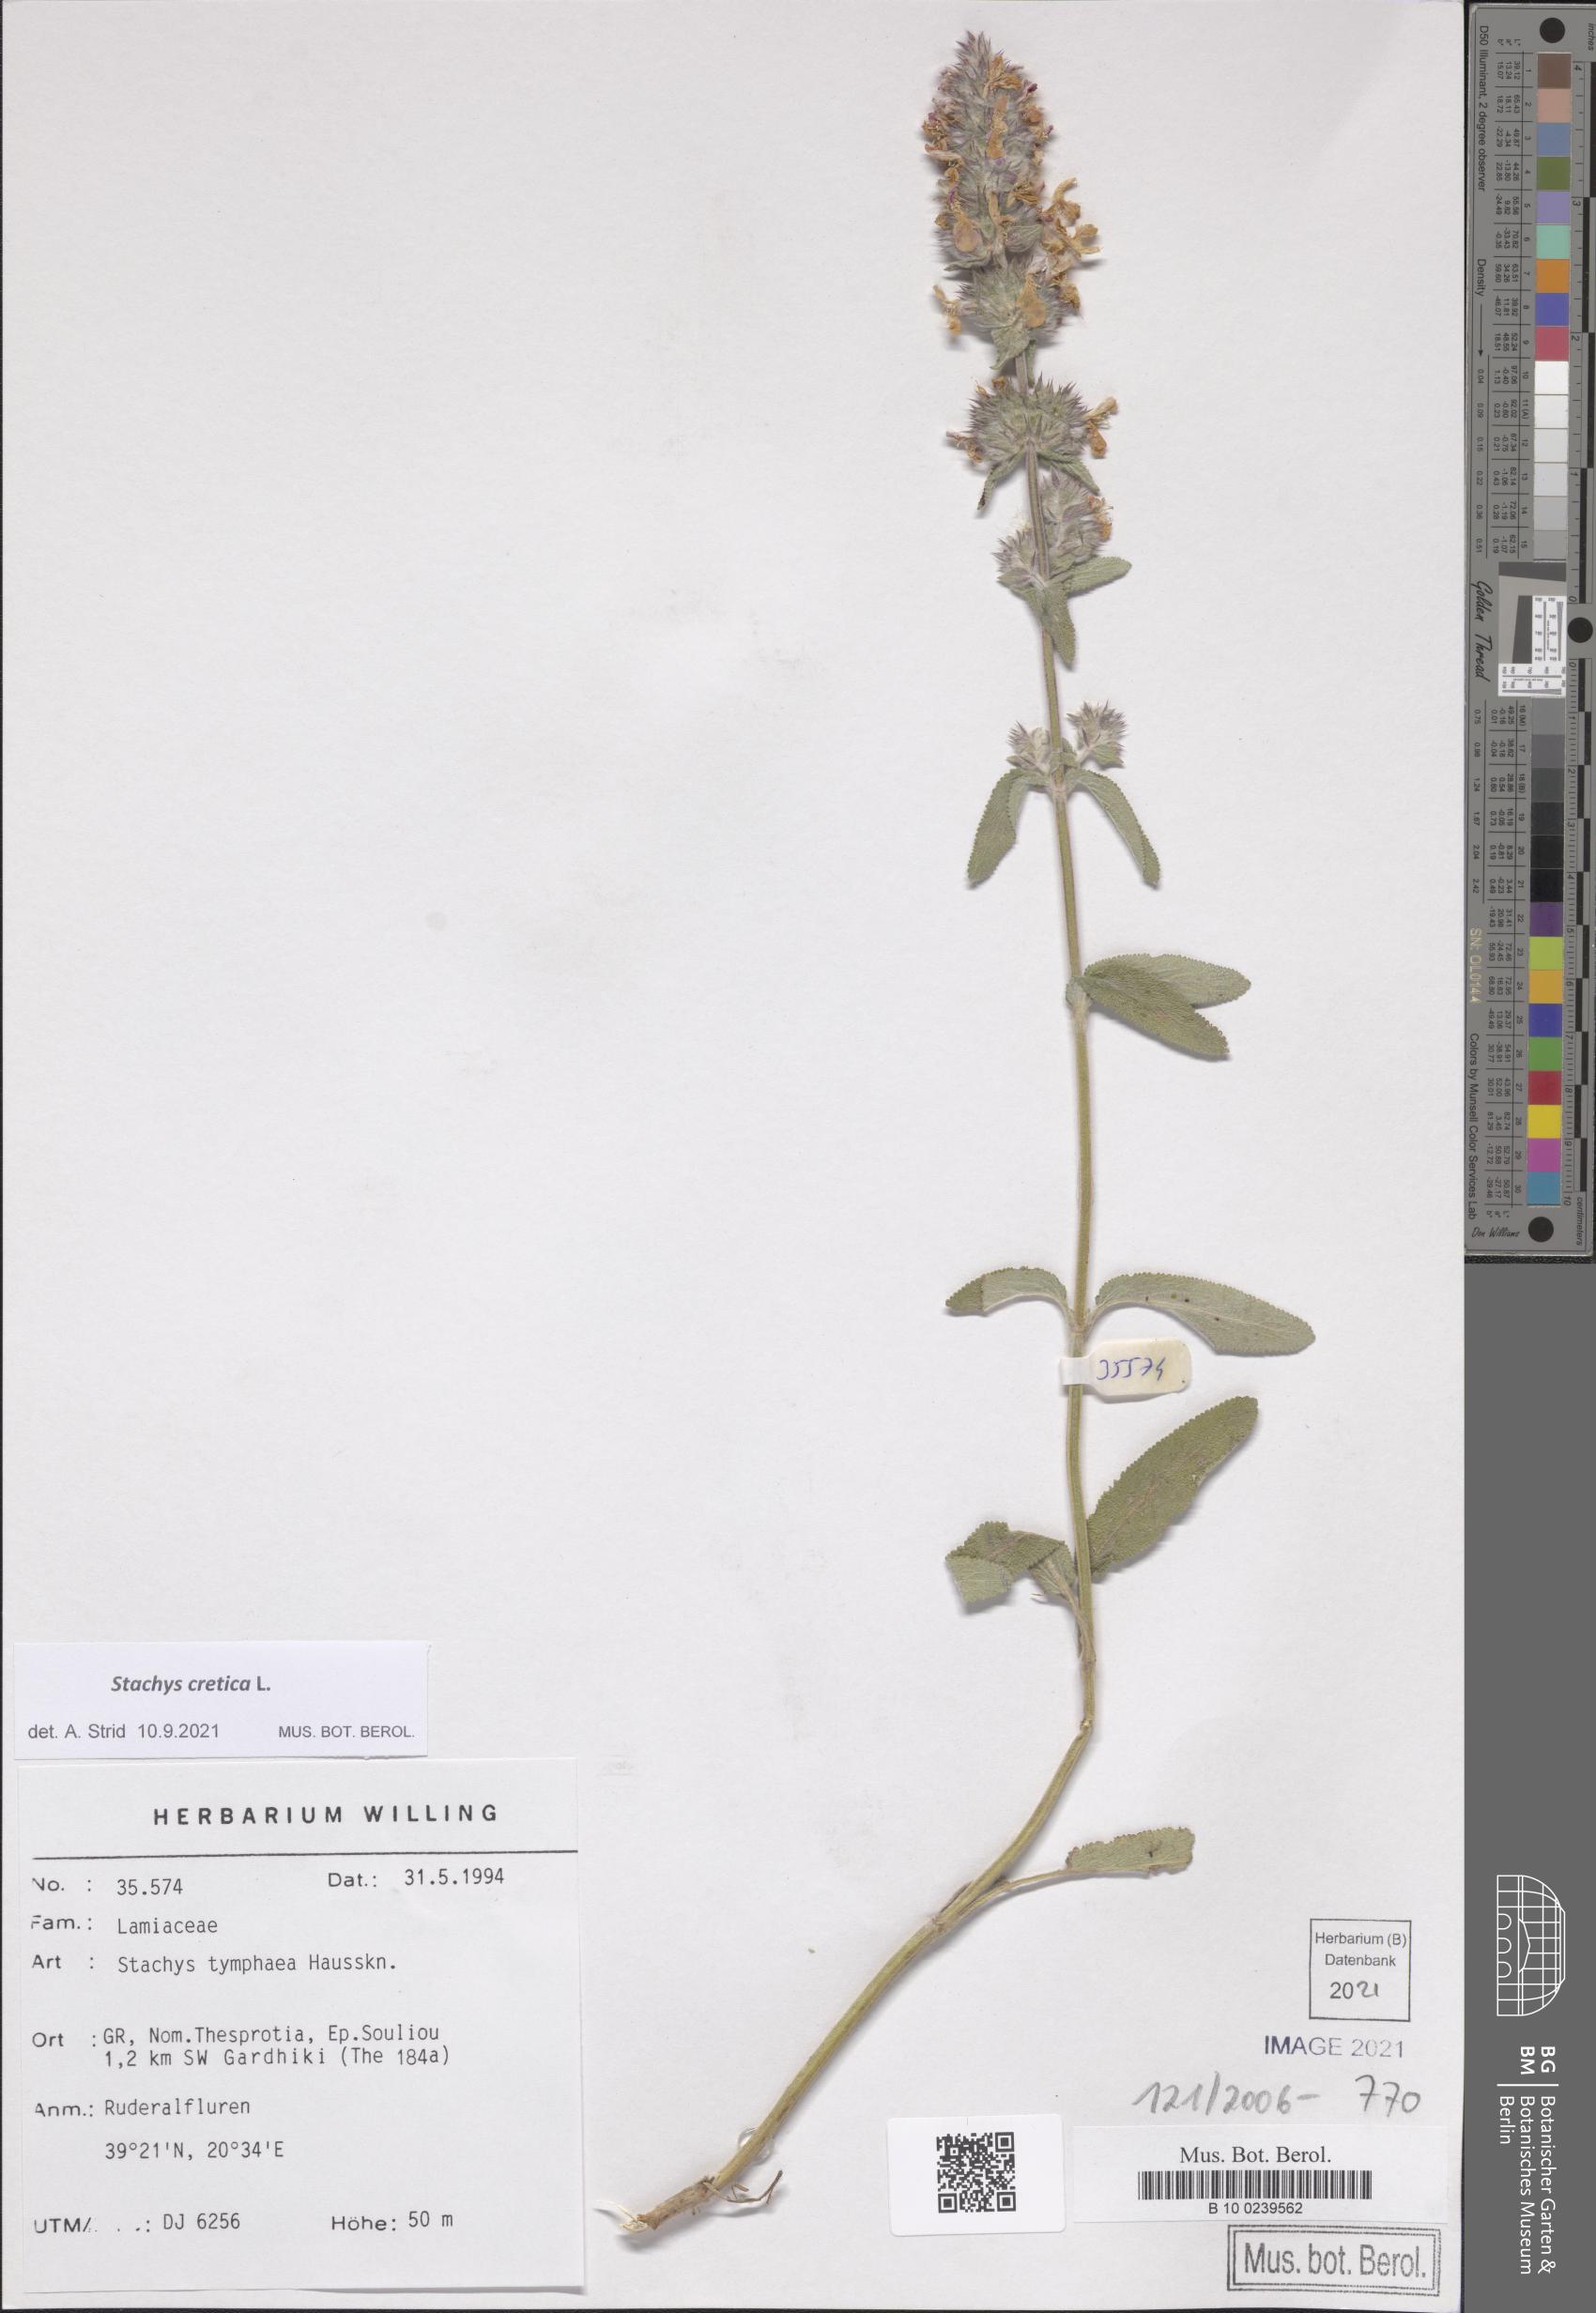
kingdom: Plantae
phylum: Tracheophyta
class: Magnoliopsida
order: Lamiales
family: Lamiaceae
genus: Stachys
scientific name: Stachys cretica
